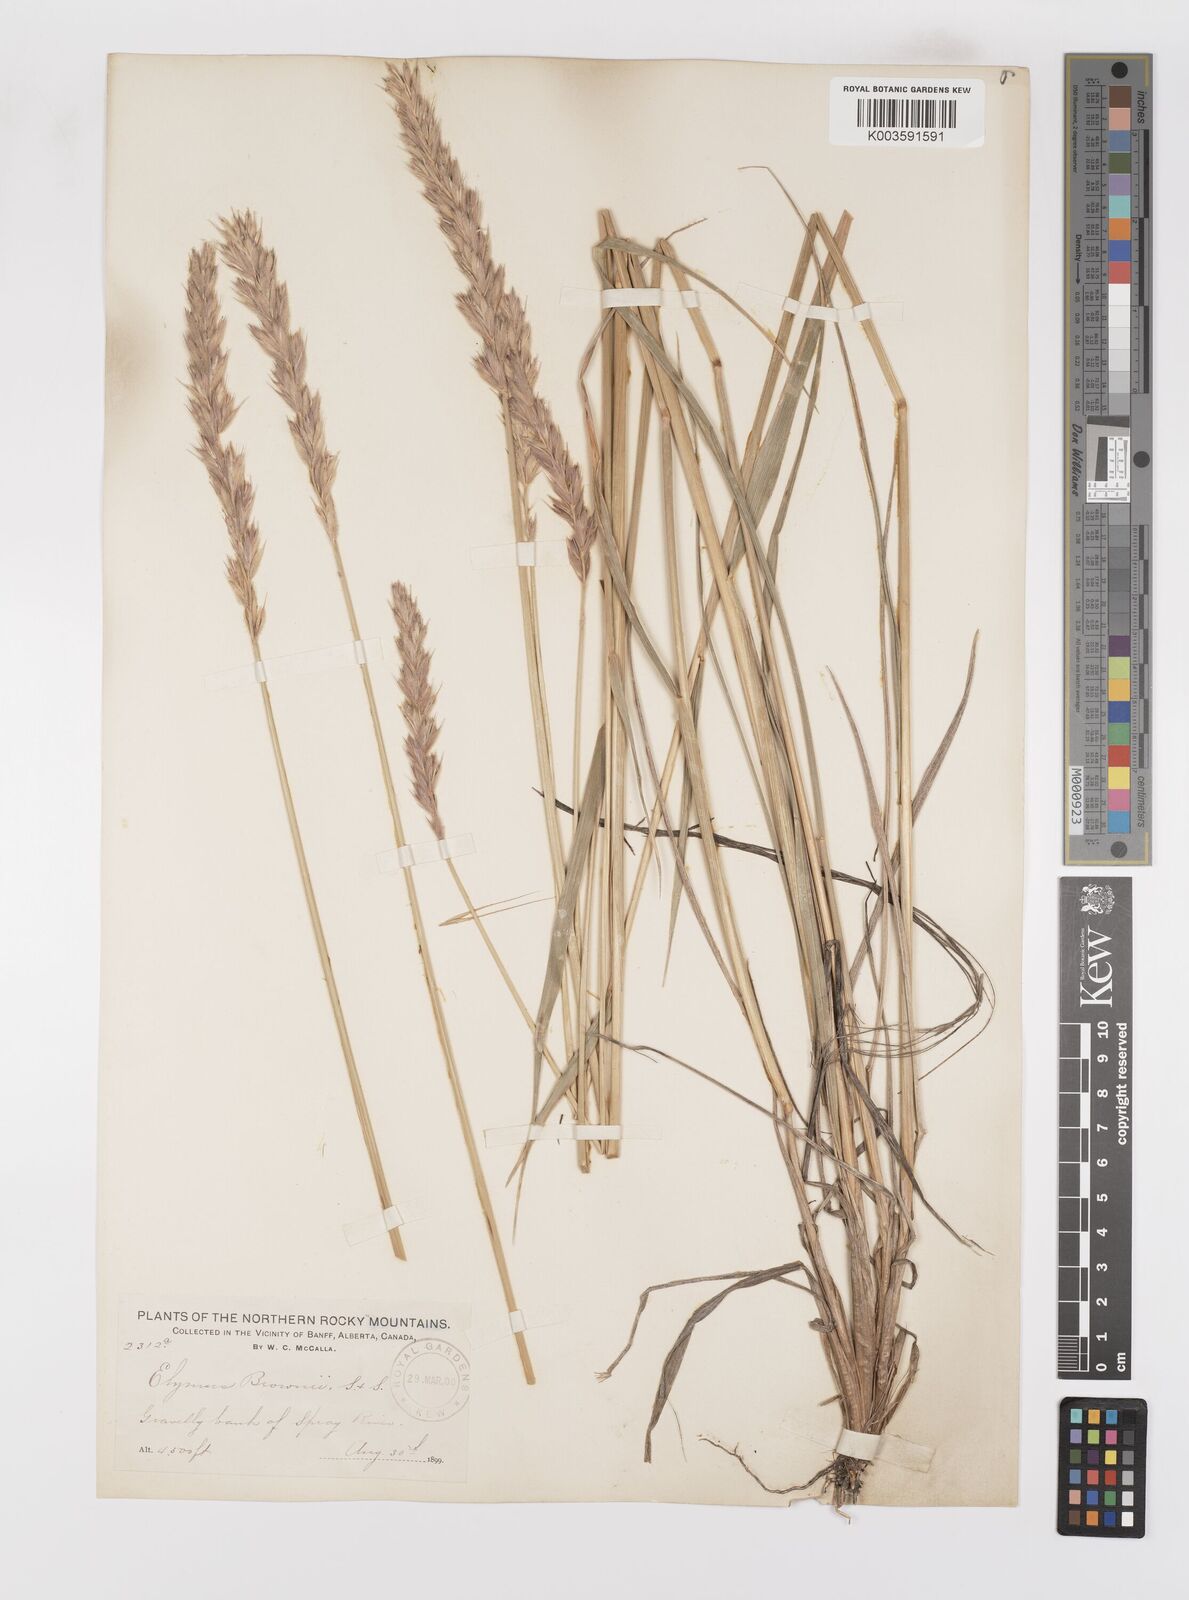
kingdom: Plantae
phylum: Tracheophyta
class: Liliopsida
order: Poales
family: Poaceae
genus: Leymus
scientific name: Leymus innovatus
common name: Boreal wild rye
